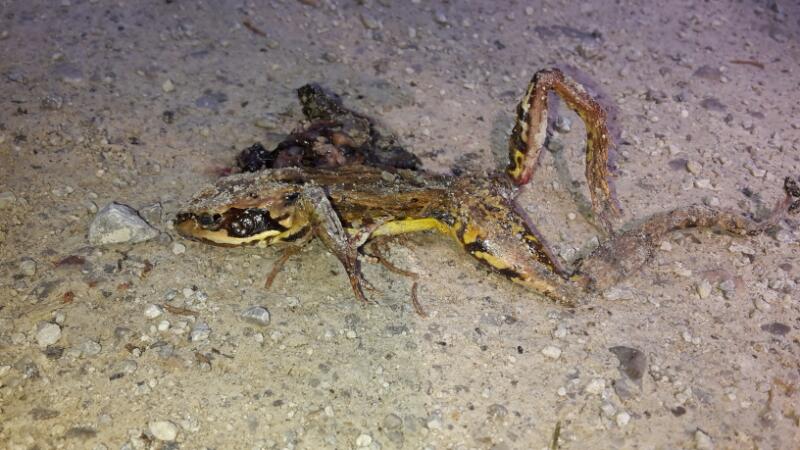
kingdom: Animalia
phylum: Chordata
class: Amphibia
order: Anura
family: Ranidae
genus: Rana
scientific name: Rana dalmatina
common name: Agile frog
